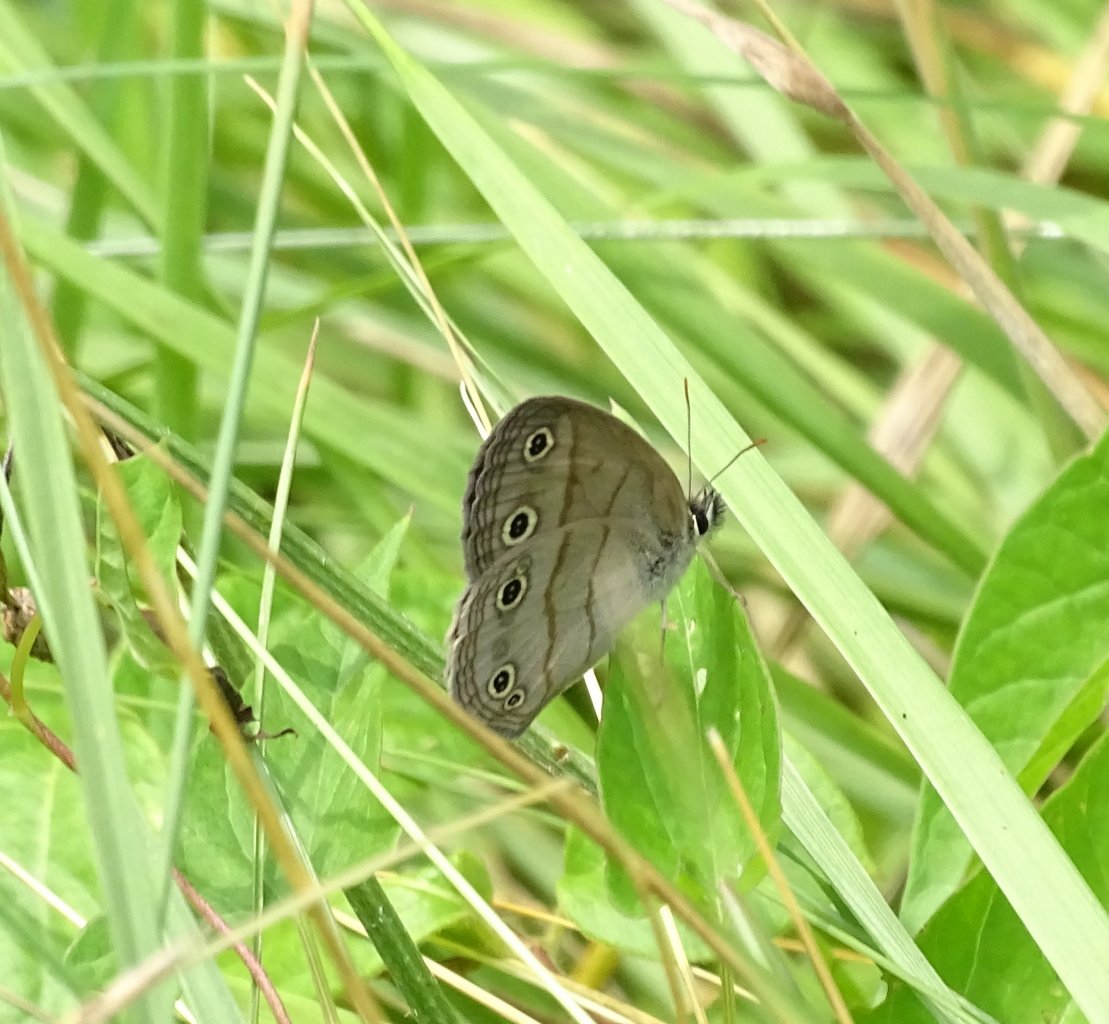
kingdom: Animalia
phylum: Arthropoda
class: Insecta
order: Lepidoptera
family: Nymphalidae
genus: Euptychia
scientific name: Euptychia cymela
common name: Little Wood Satyr
